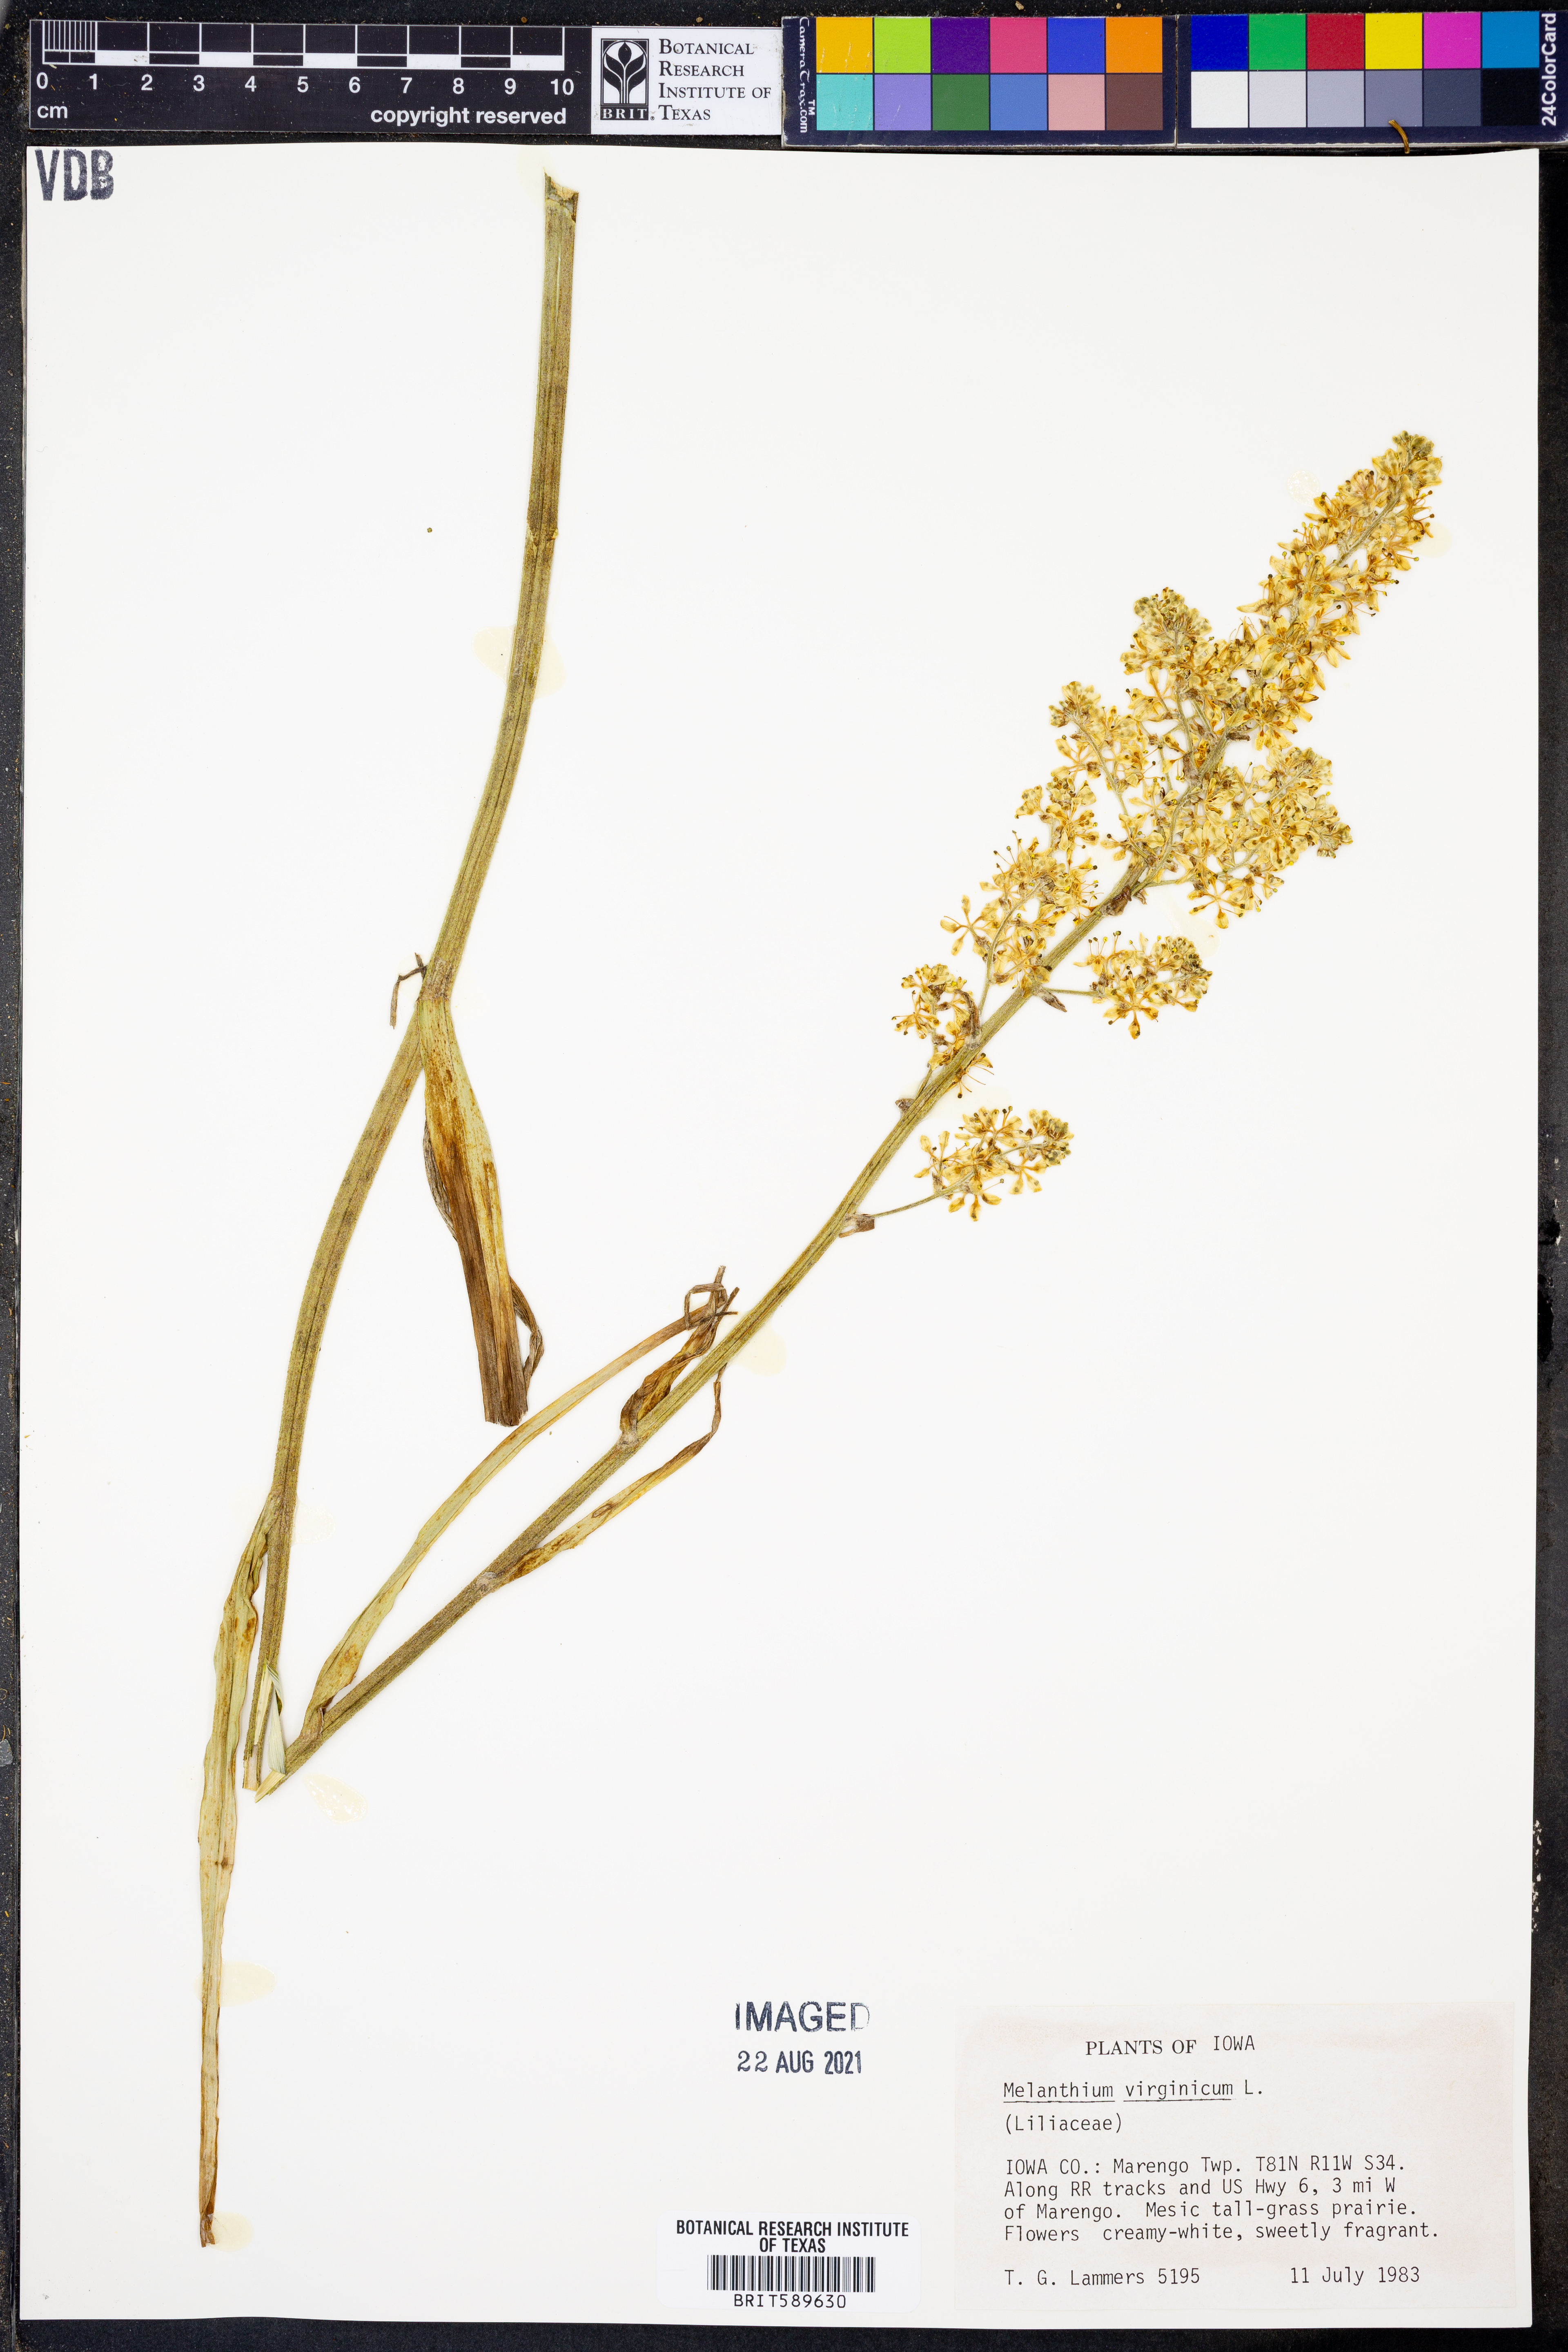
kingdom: Plantae
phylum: Tracheophyta
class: Liliopsida
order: Liliales
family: Melanthiaceae
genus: Melanthium
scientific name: Melanthium virginicum
